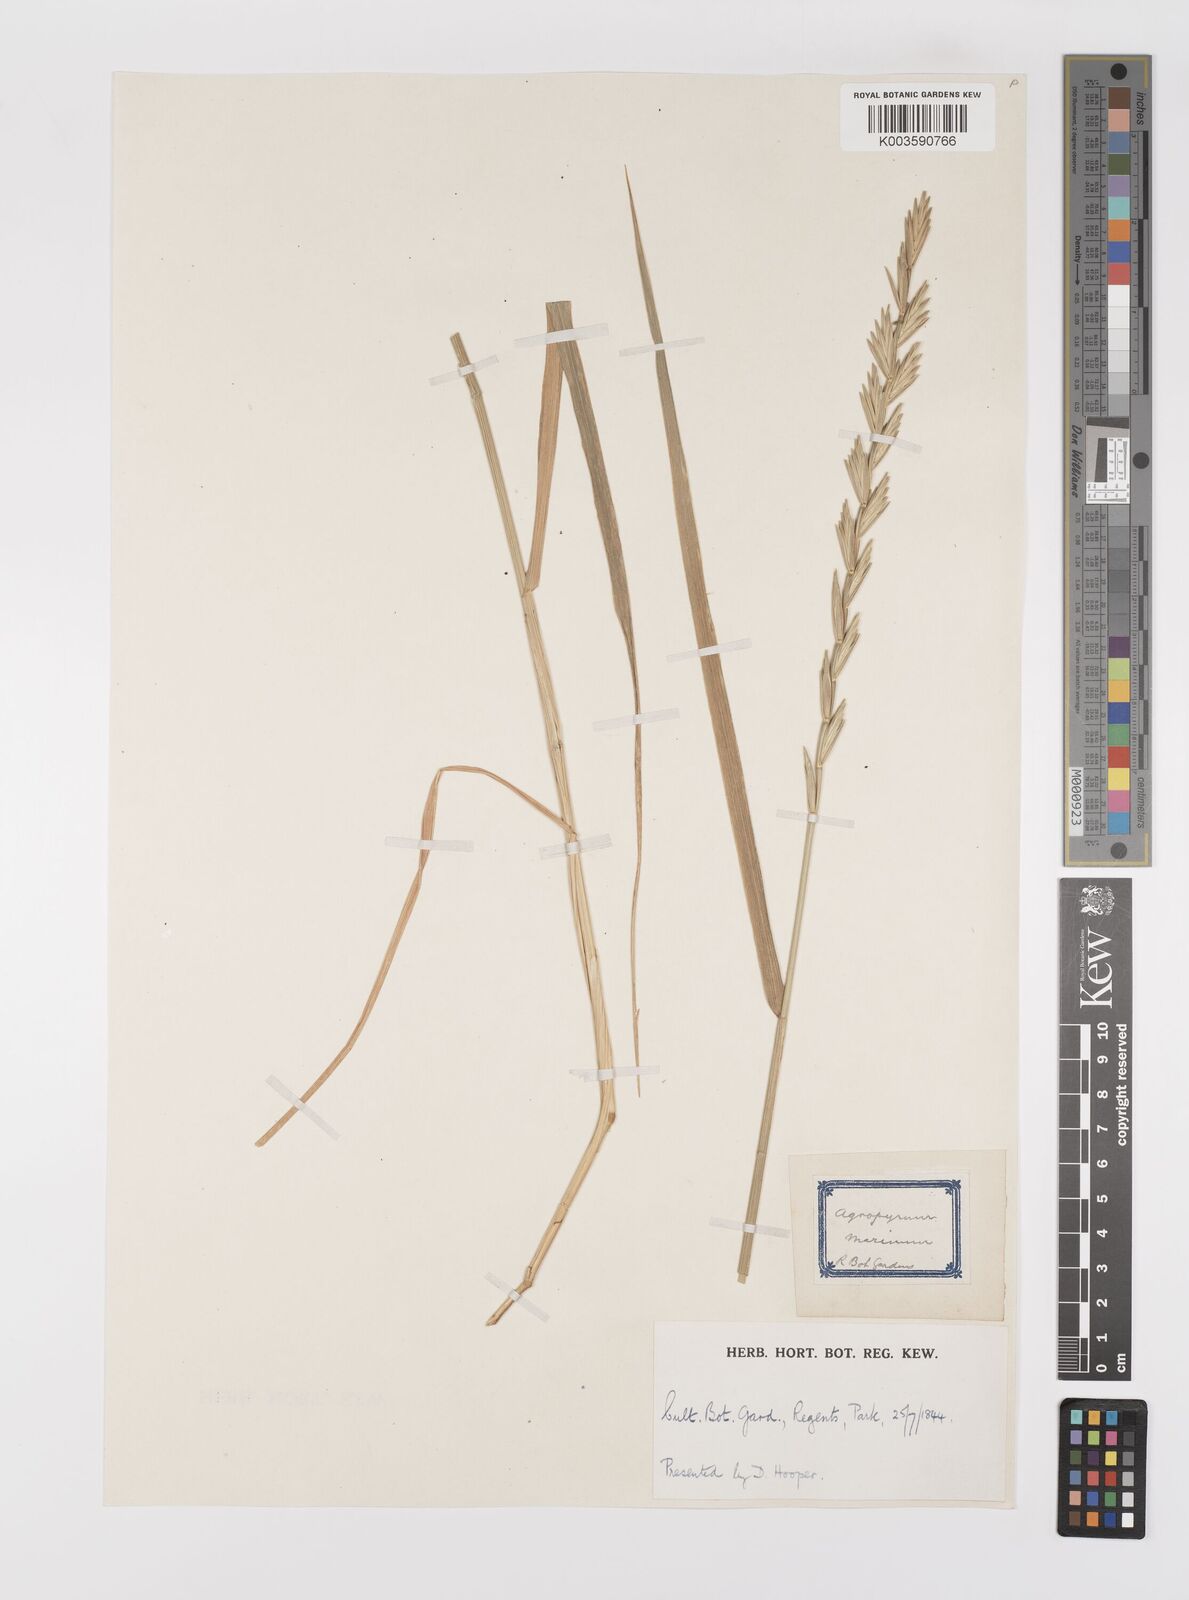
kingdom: Plantae
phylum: Tracheophyta
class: Liliopsida
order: Poales
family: Poaceae
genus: Elymus
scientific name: Elymus athericus
